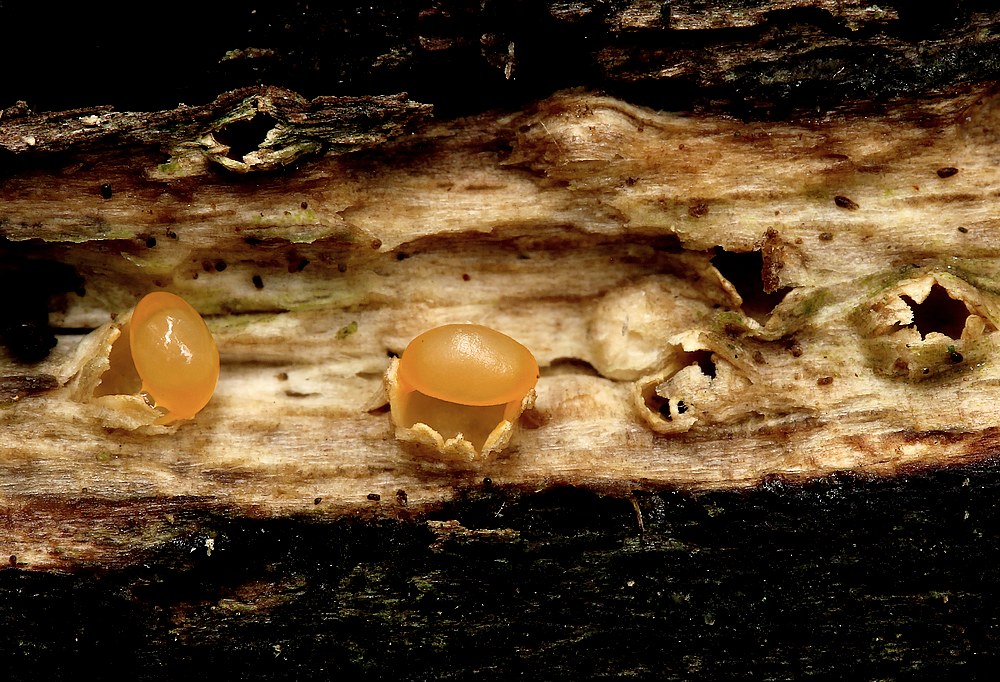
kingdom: Fungi
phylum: Basidiomycota
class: Agaricomycetes
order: Geastrales
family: Geastraceae
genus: Sphaerobolus
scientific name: Sphaerobolus stellatus
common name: bombekaster
